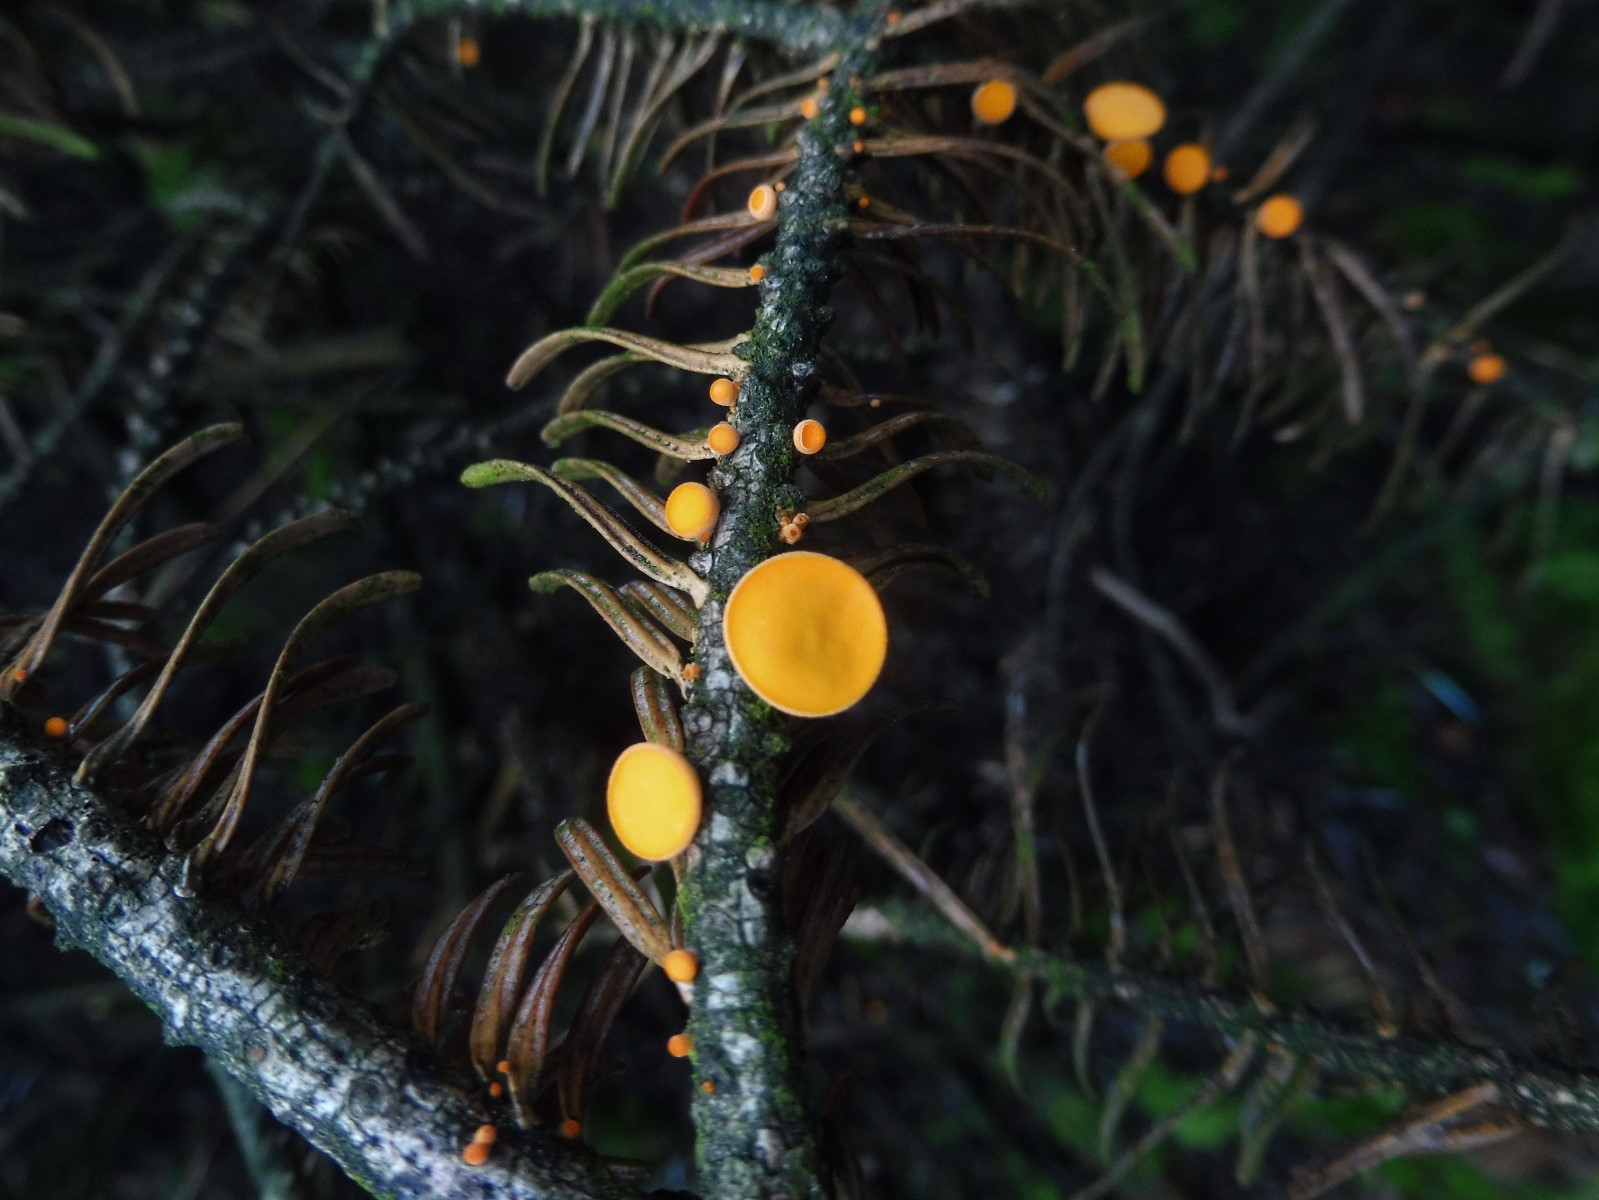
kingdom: Fungi
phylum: Ascomycota
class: Pezizomycetes
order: Pezizales
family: Sarcoscyphaceae
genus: Pithya
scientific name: Pithya vulgaris
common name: stor dukatbæger
